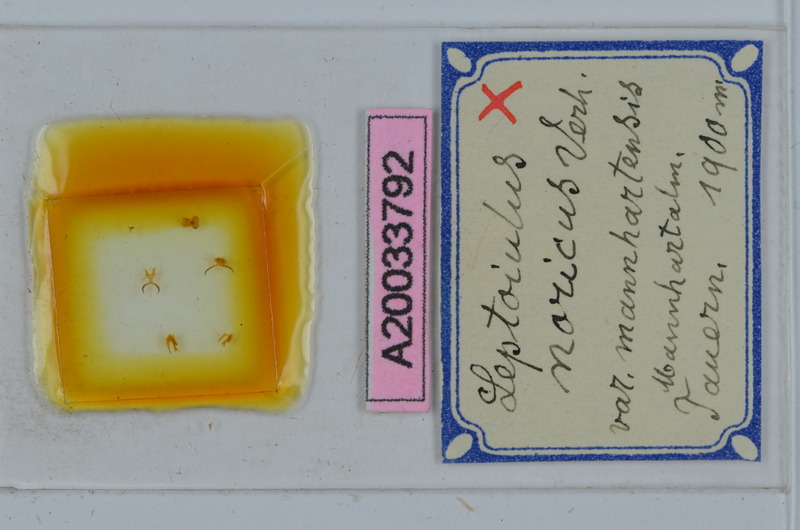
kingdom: Animalia
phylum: Arthropoda
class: Diplopoda
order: Julida
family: Julidae
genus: Leptoiulus
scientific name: Leptoiulus noricus
